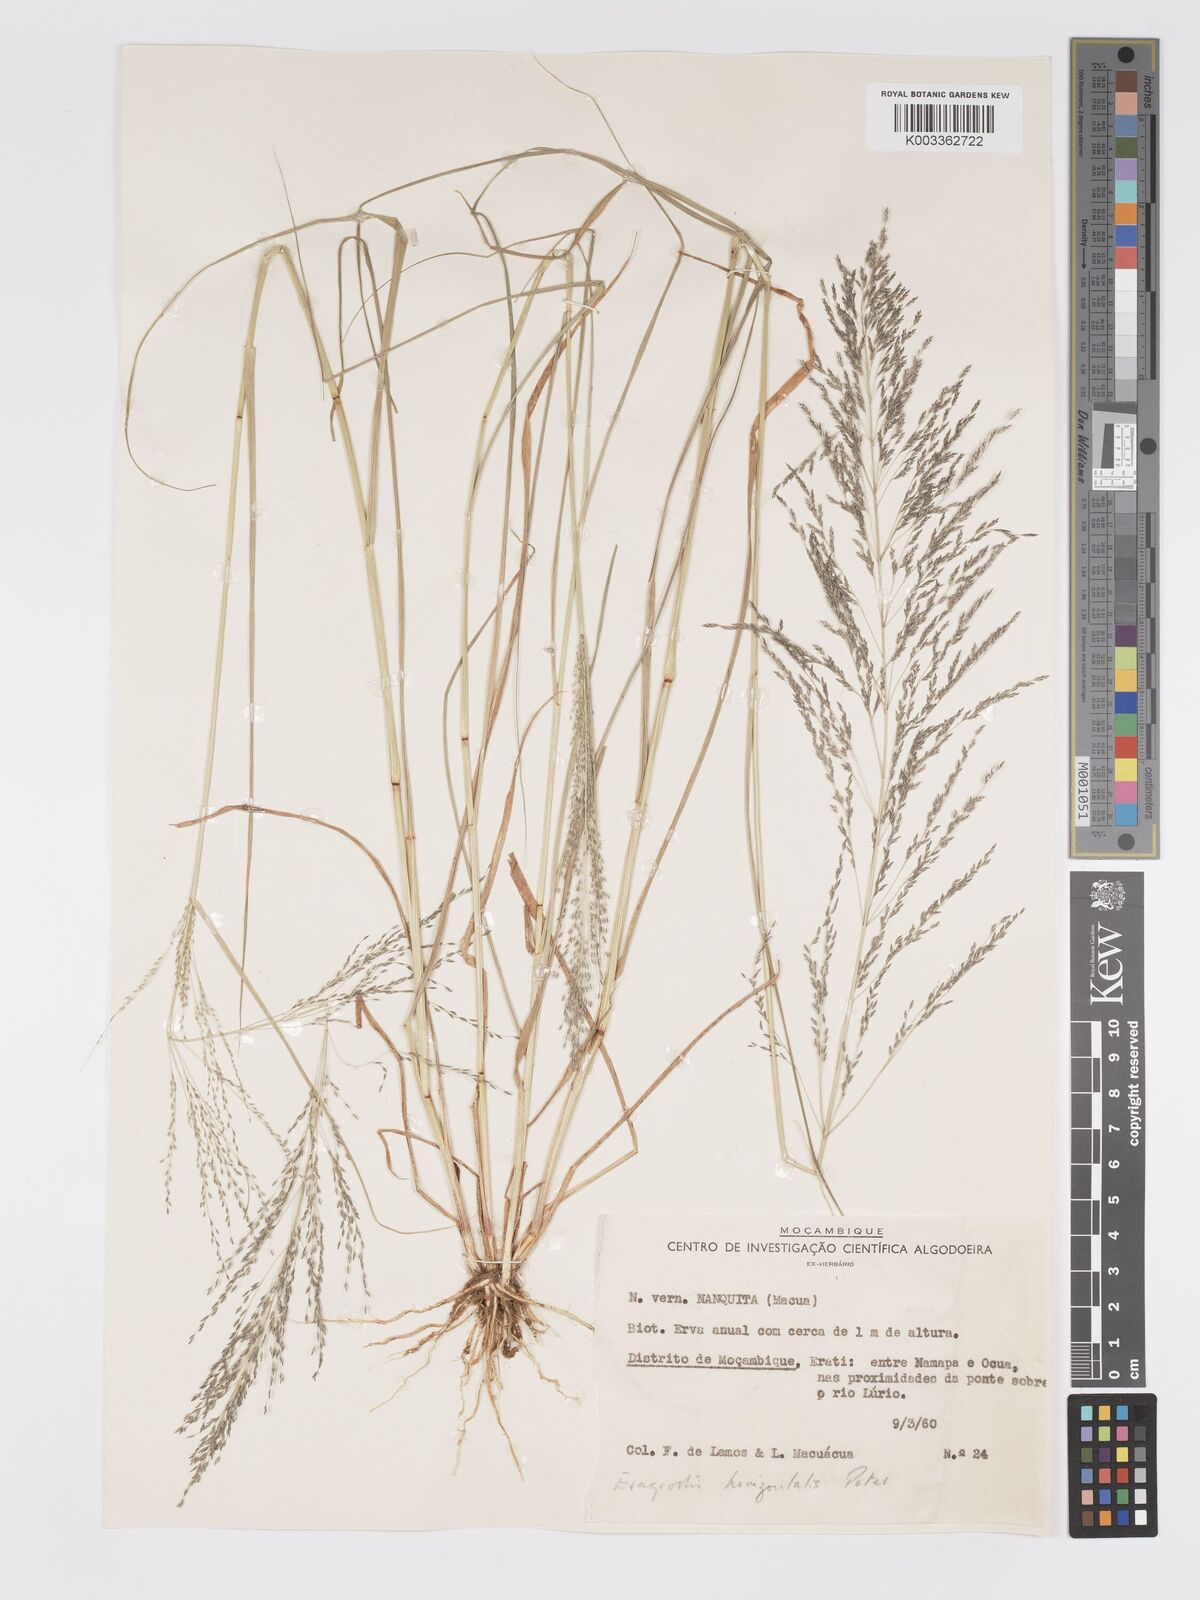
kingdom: Plantae
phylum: Tracheophyta
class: Liliopsida
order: Poales
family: Poaceae
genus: Eragrostis
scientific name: Eragrostis cylindriflora
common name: Cylinderflower lovegrass
